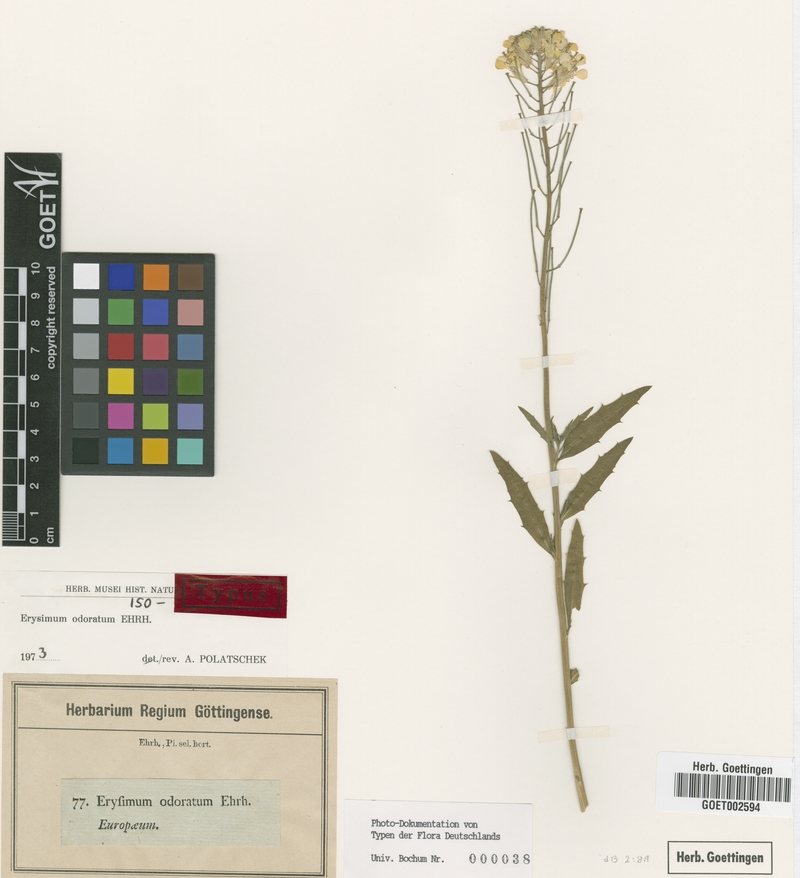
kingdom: Plantae
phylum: Tracheophyta
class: Magnoliopsida
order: Brassicales
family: Brassicaceae
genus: Erysimum
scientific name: Erysimum odoratum
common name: Smelly wallflower
